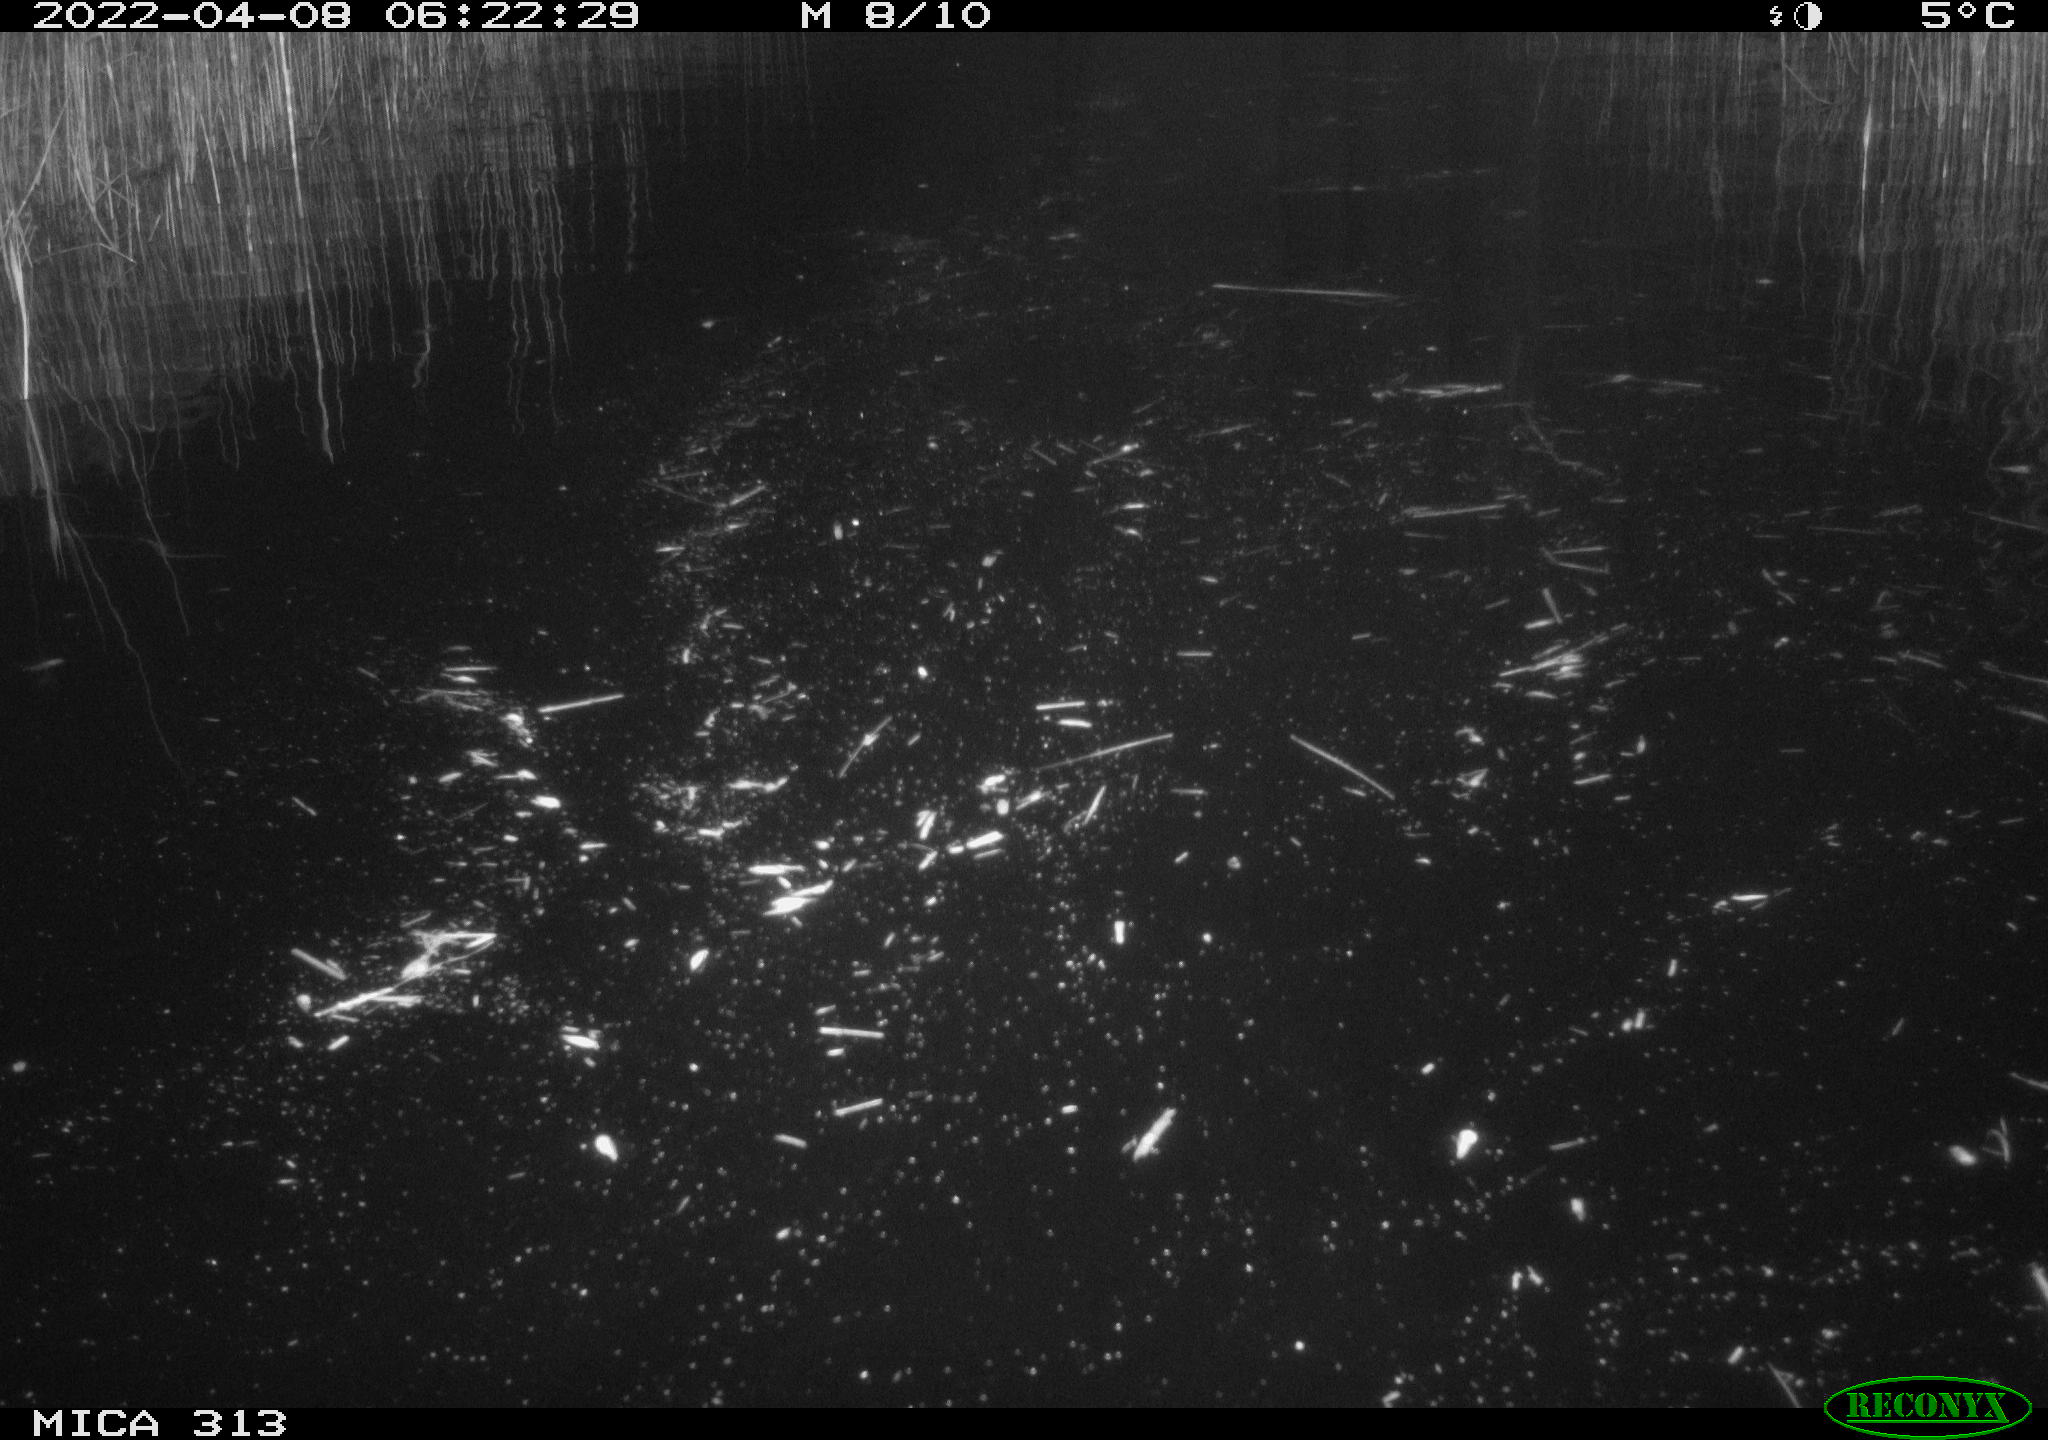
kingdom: Animalia
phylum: Chordata
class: Aves
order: Gruiformes
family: Rallidae
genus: Gallinula
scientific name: Gallinula chloropus
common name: Common moorhen
